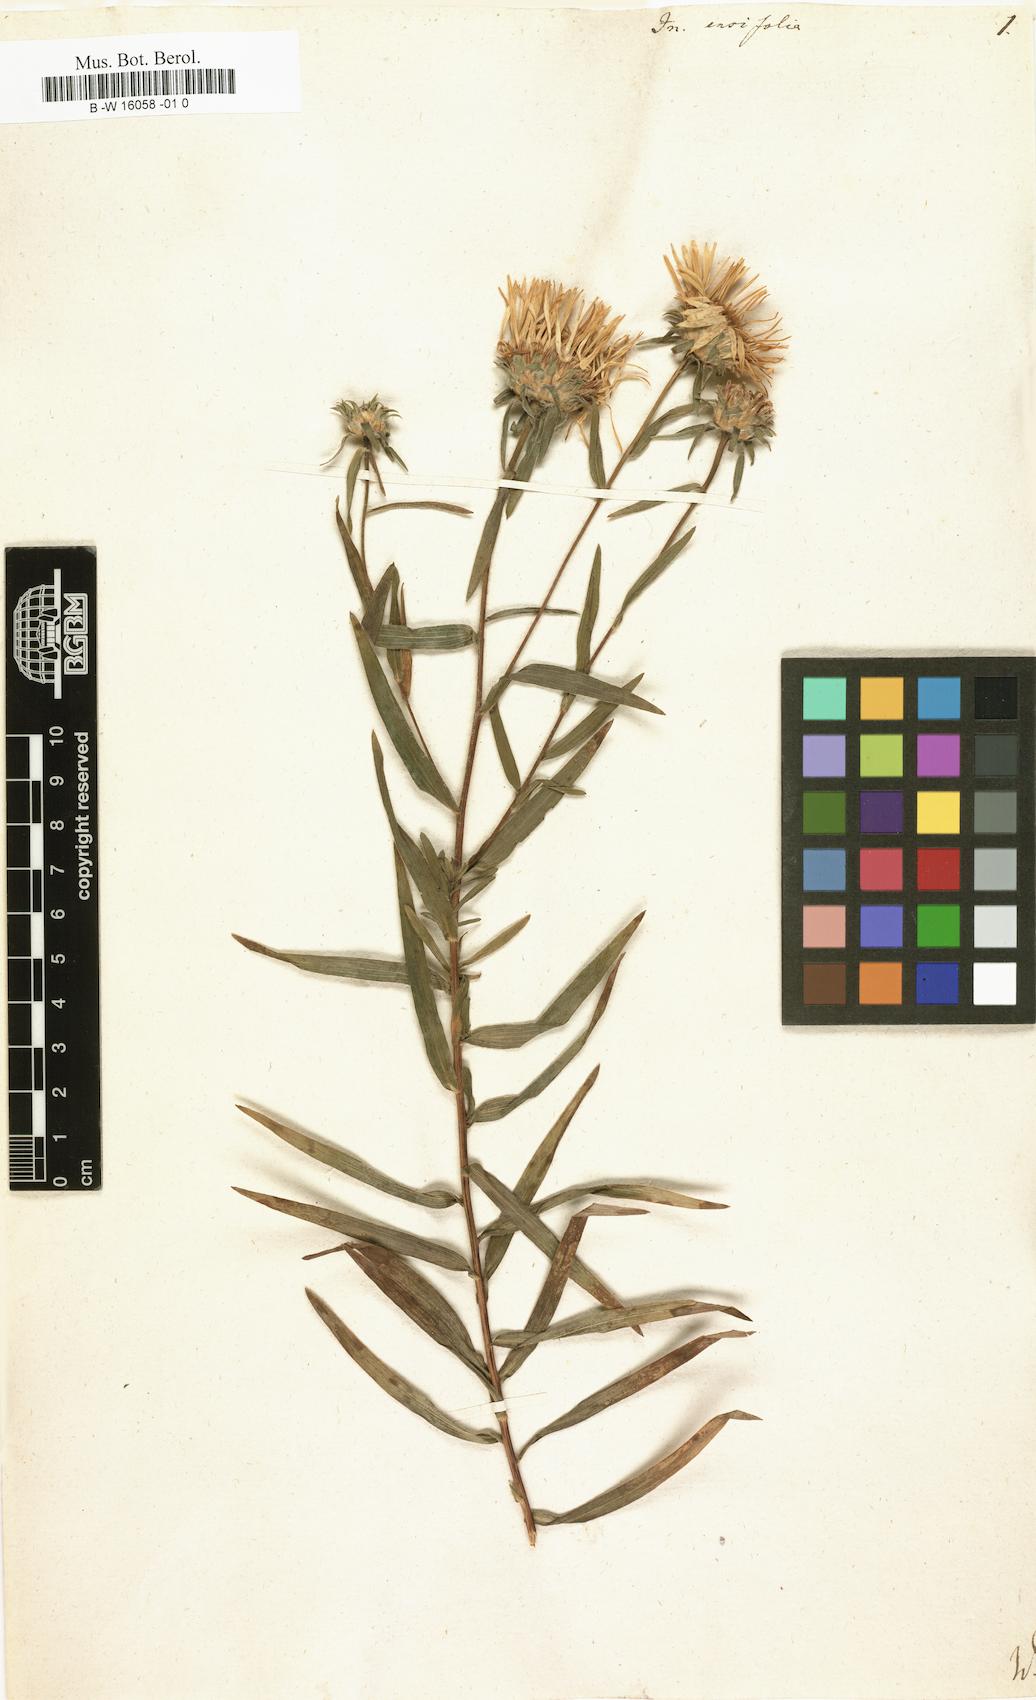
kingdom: Plantae
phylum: Tracheophyta
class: Magnoliopsida
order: Asterales
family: Asteraceae
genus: Pentanema
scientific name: Pentanema ensifolium
